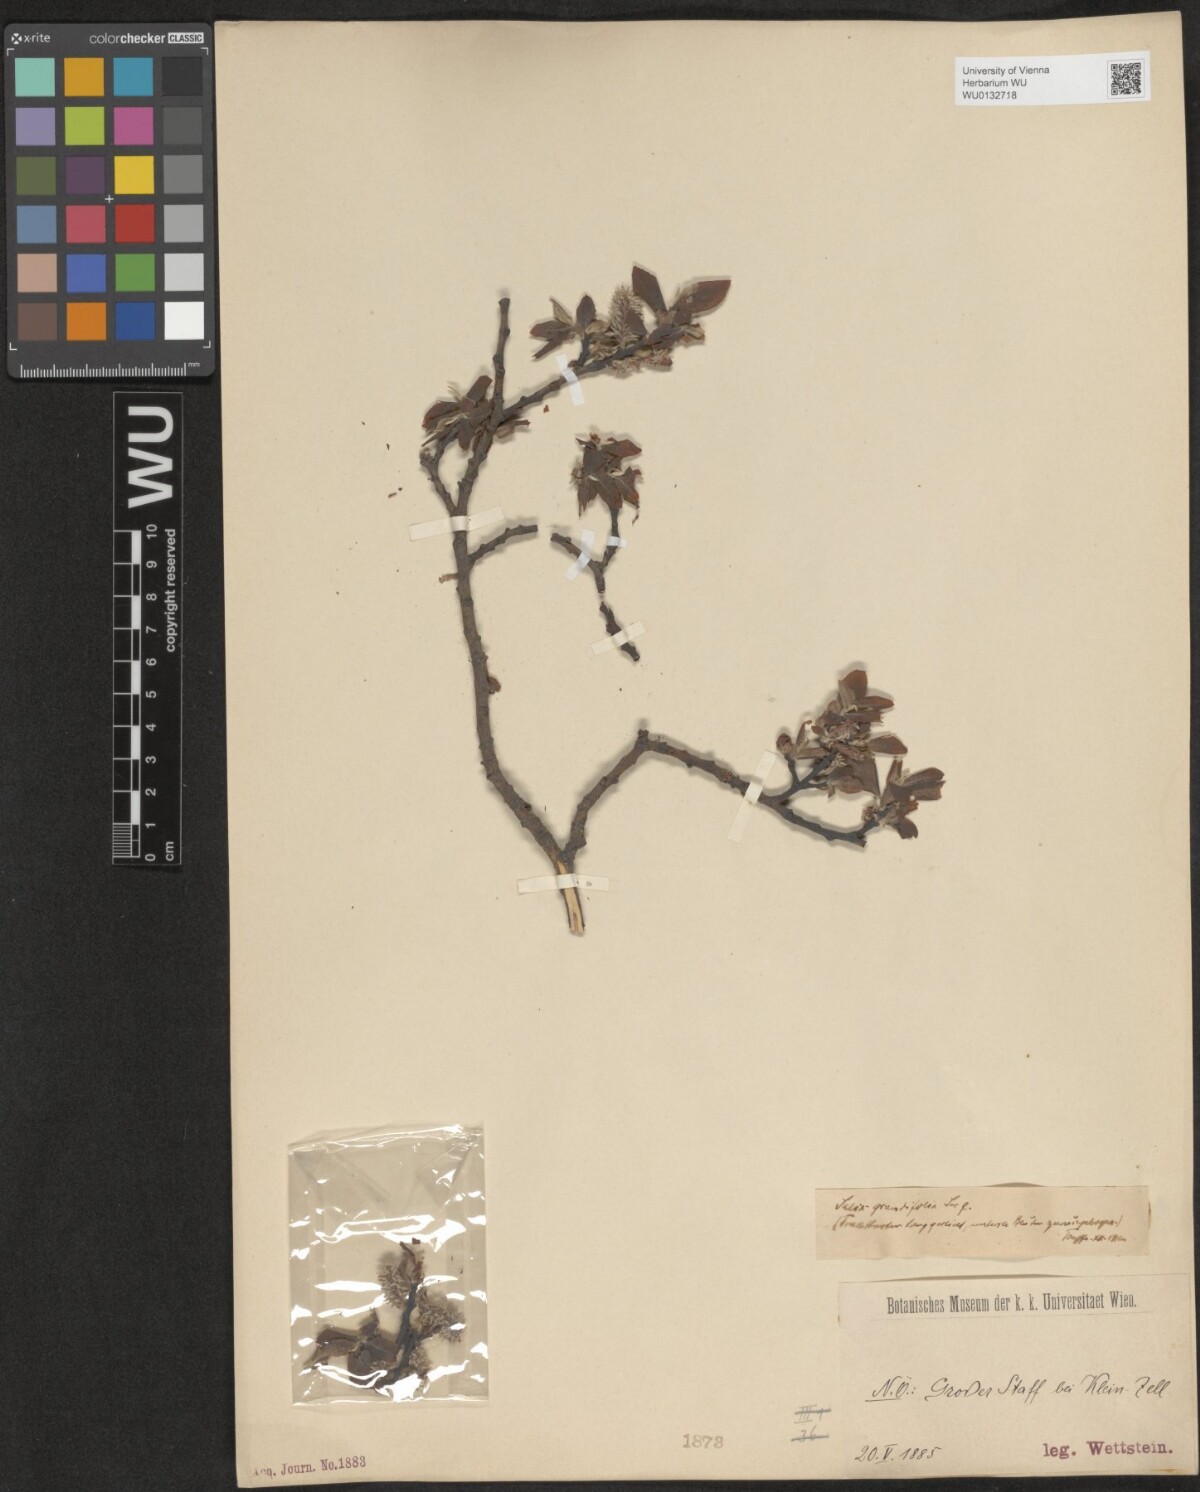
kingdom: Plantae
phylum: Tracheophyta
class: Magnoliopsida
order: Malpighiales
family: Salicaceae
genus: Salix
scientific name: Salix appendiculata
